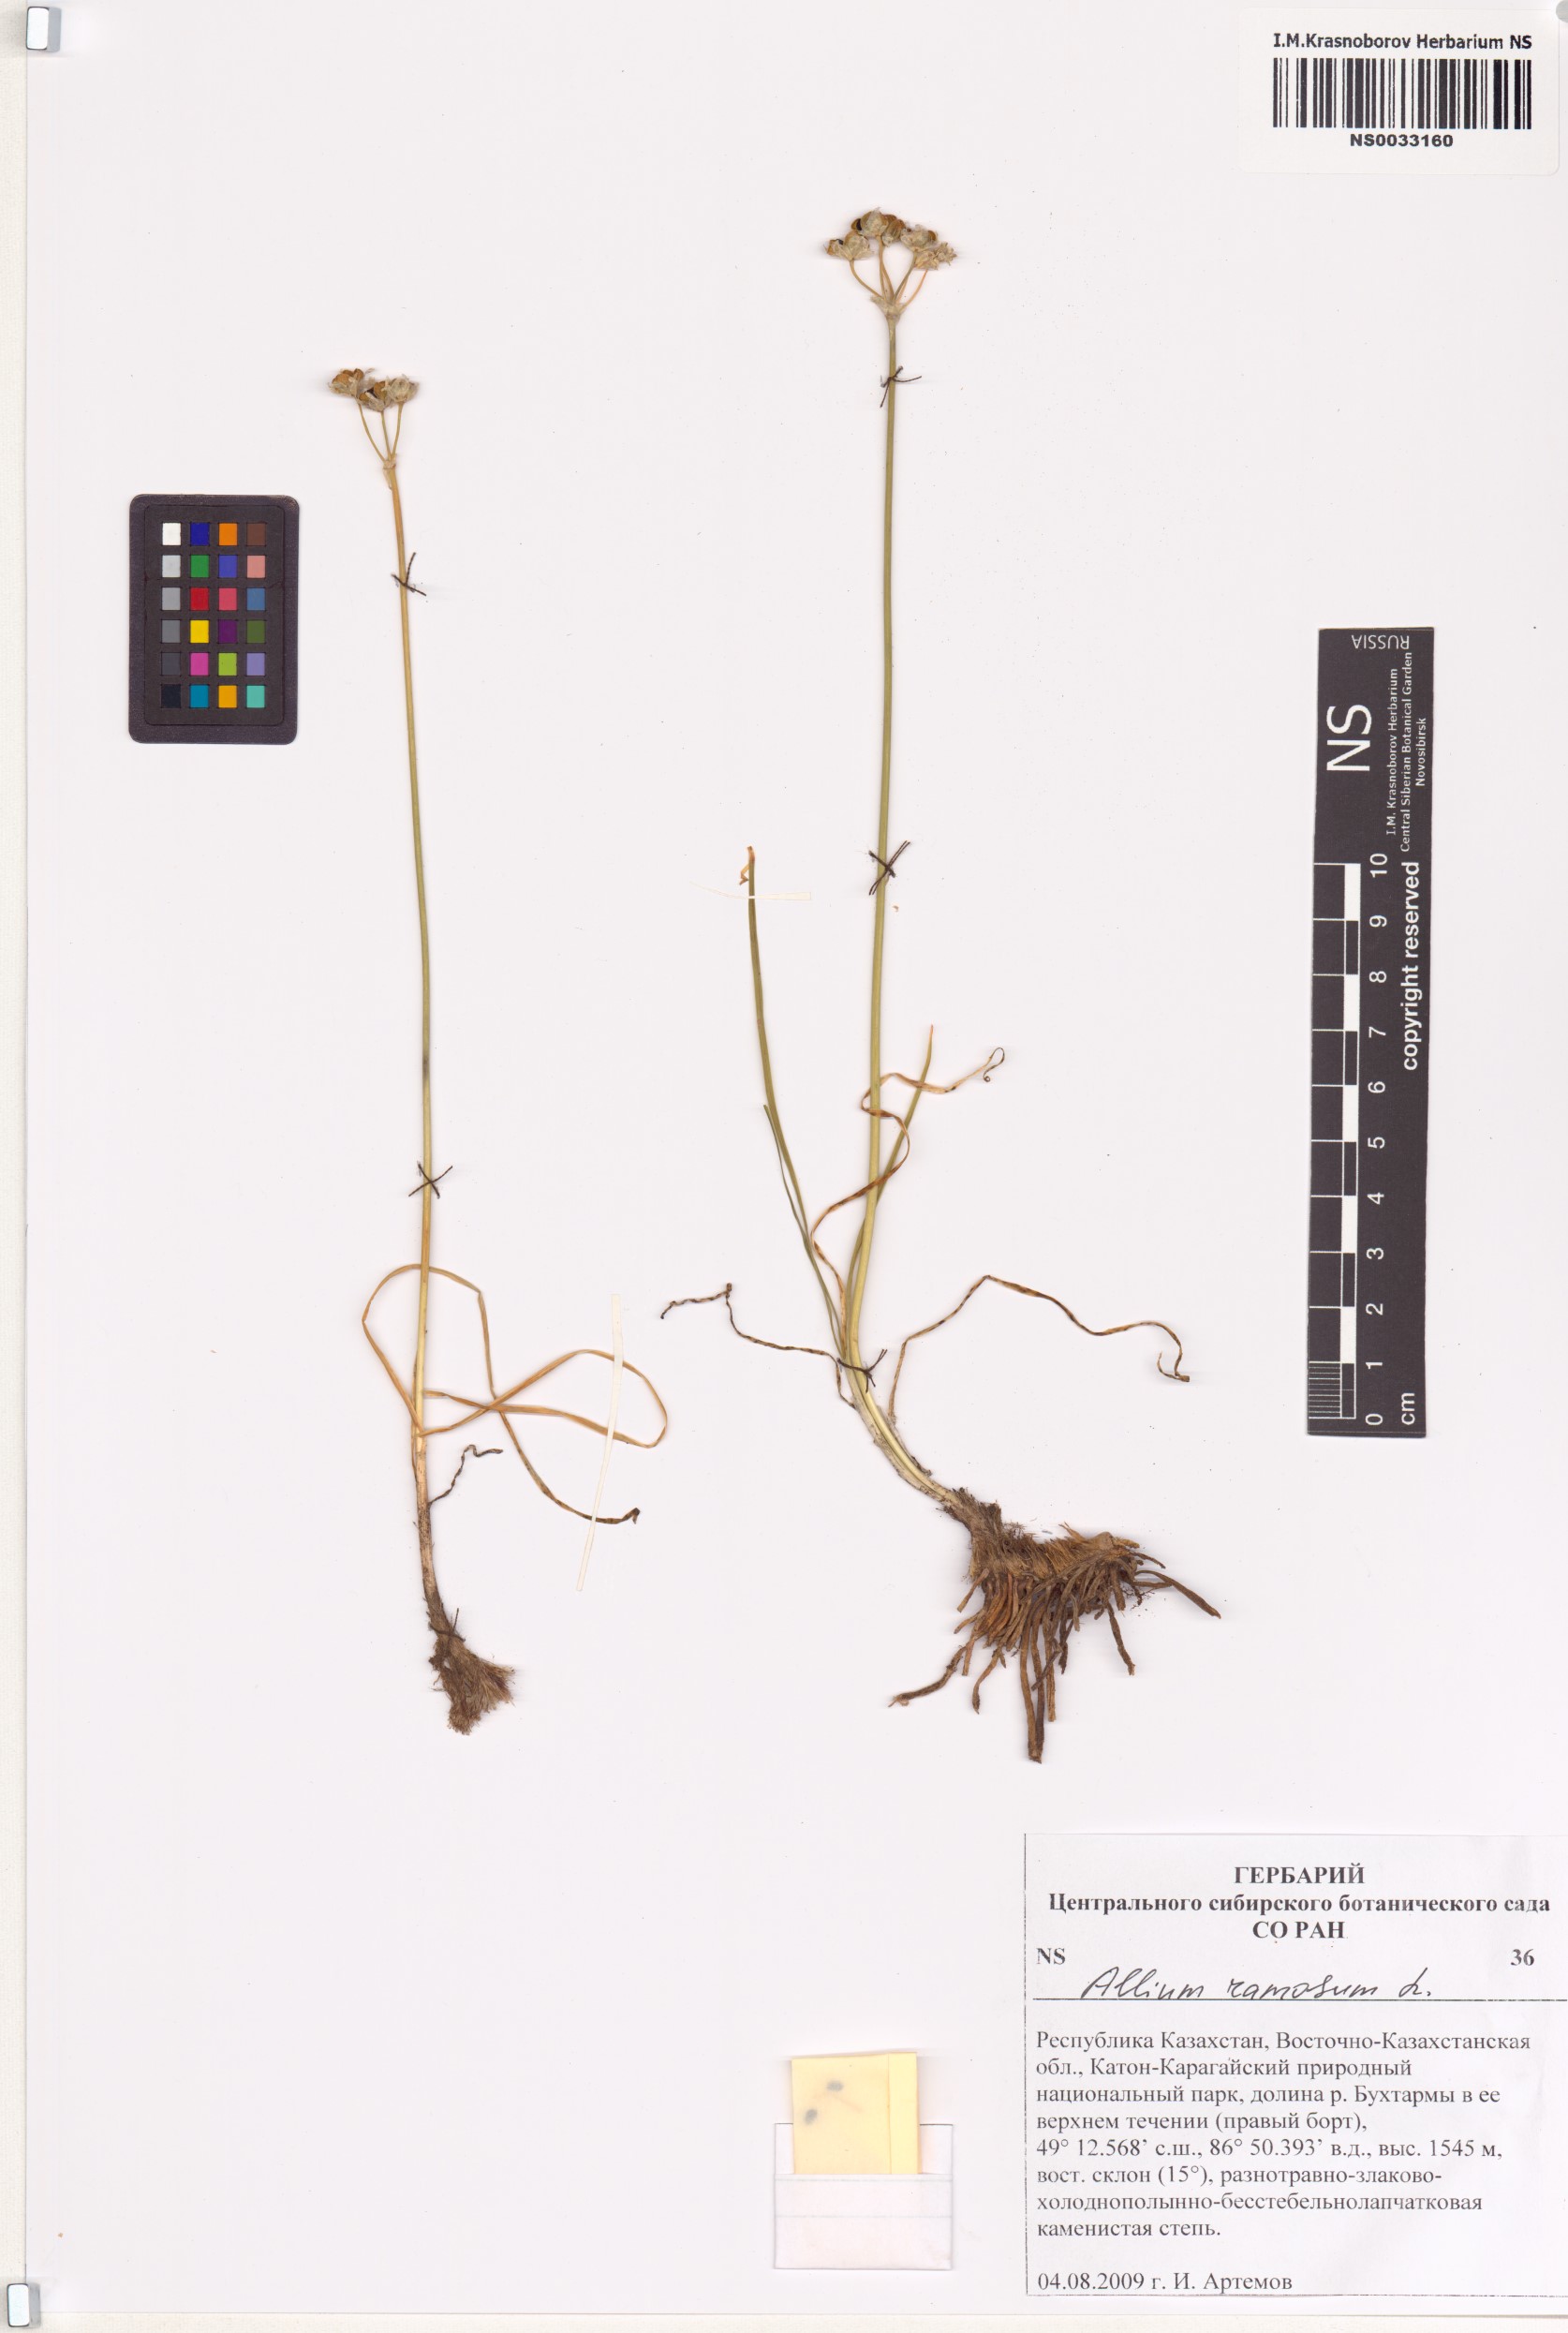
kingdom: Plantae
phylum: Tracheophyta
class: Liliopsida
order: Asparagales
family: Amaryllidaceae
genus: Allium
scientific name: Allium ramosum
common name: Fragrant garlic
